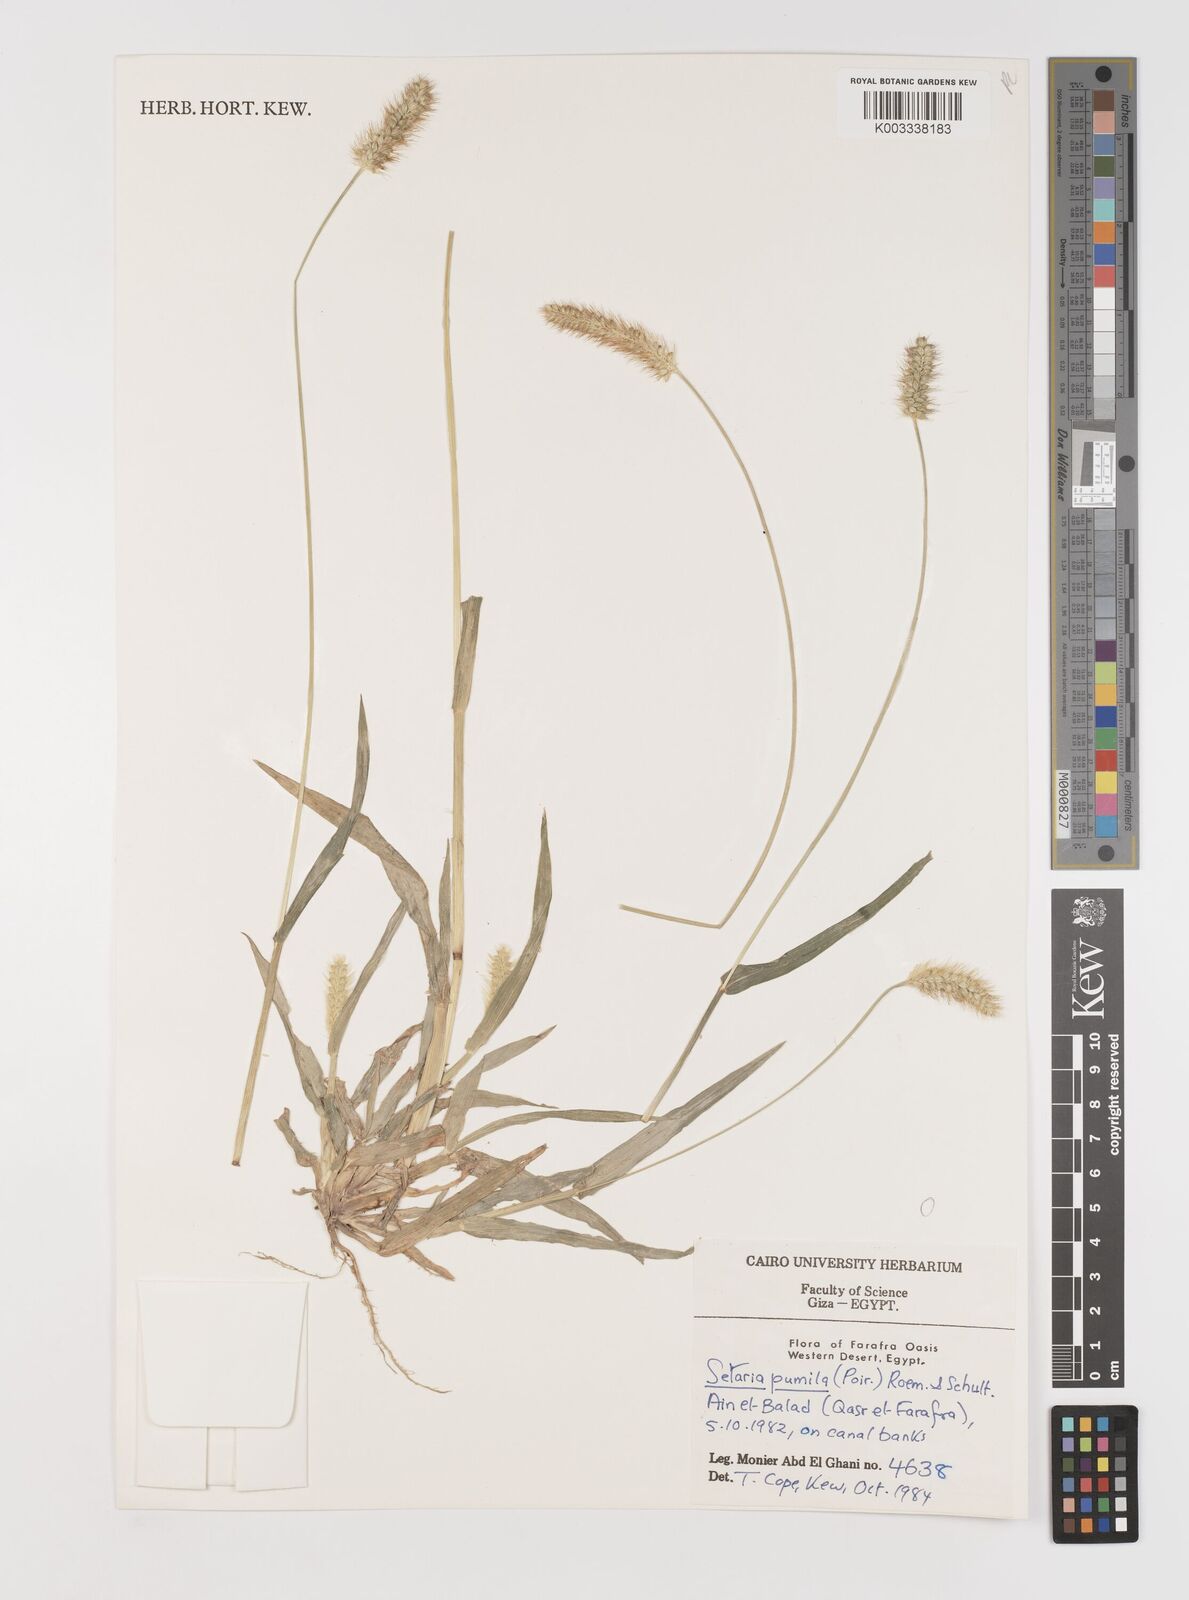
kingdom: Plantae
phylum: Tracheophyta
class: Liliopsida
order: Poales
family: Poaceae
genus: Setaria
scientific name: Setaria pumila
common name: Yellow bristle-grass
